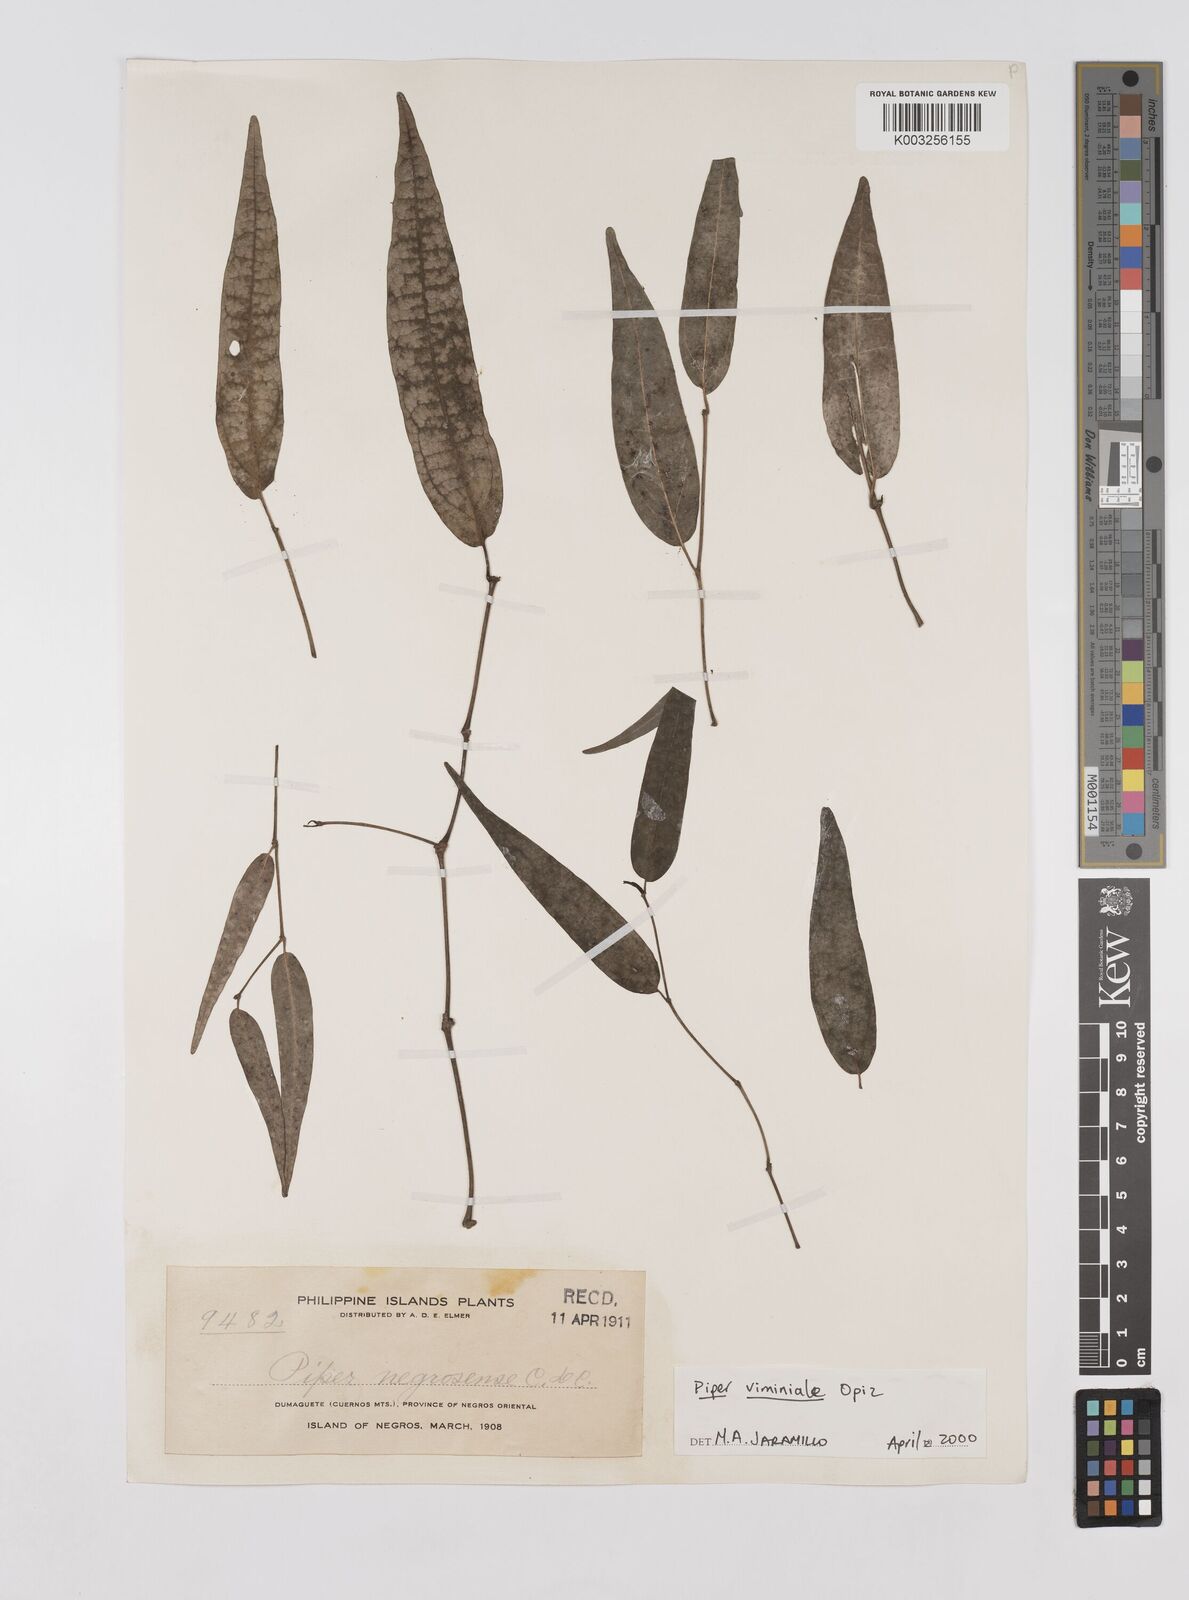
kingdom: Plantae
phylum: Tracheophyta
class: Magnoliopsida
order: Piperales
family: Piperaceae
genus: Piper
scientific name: Piper lanatum
